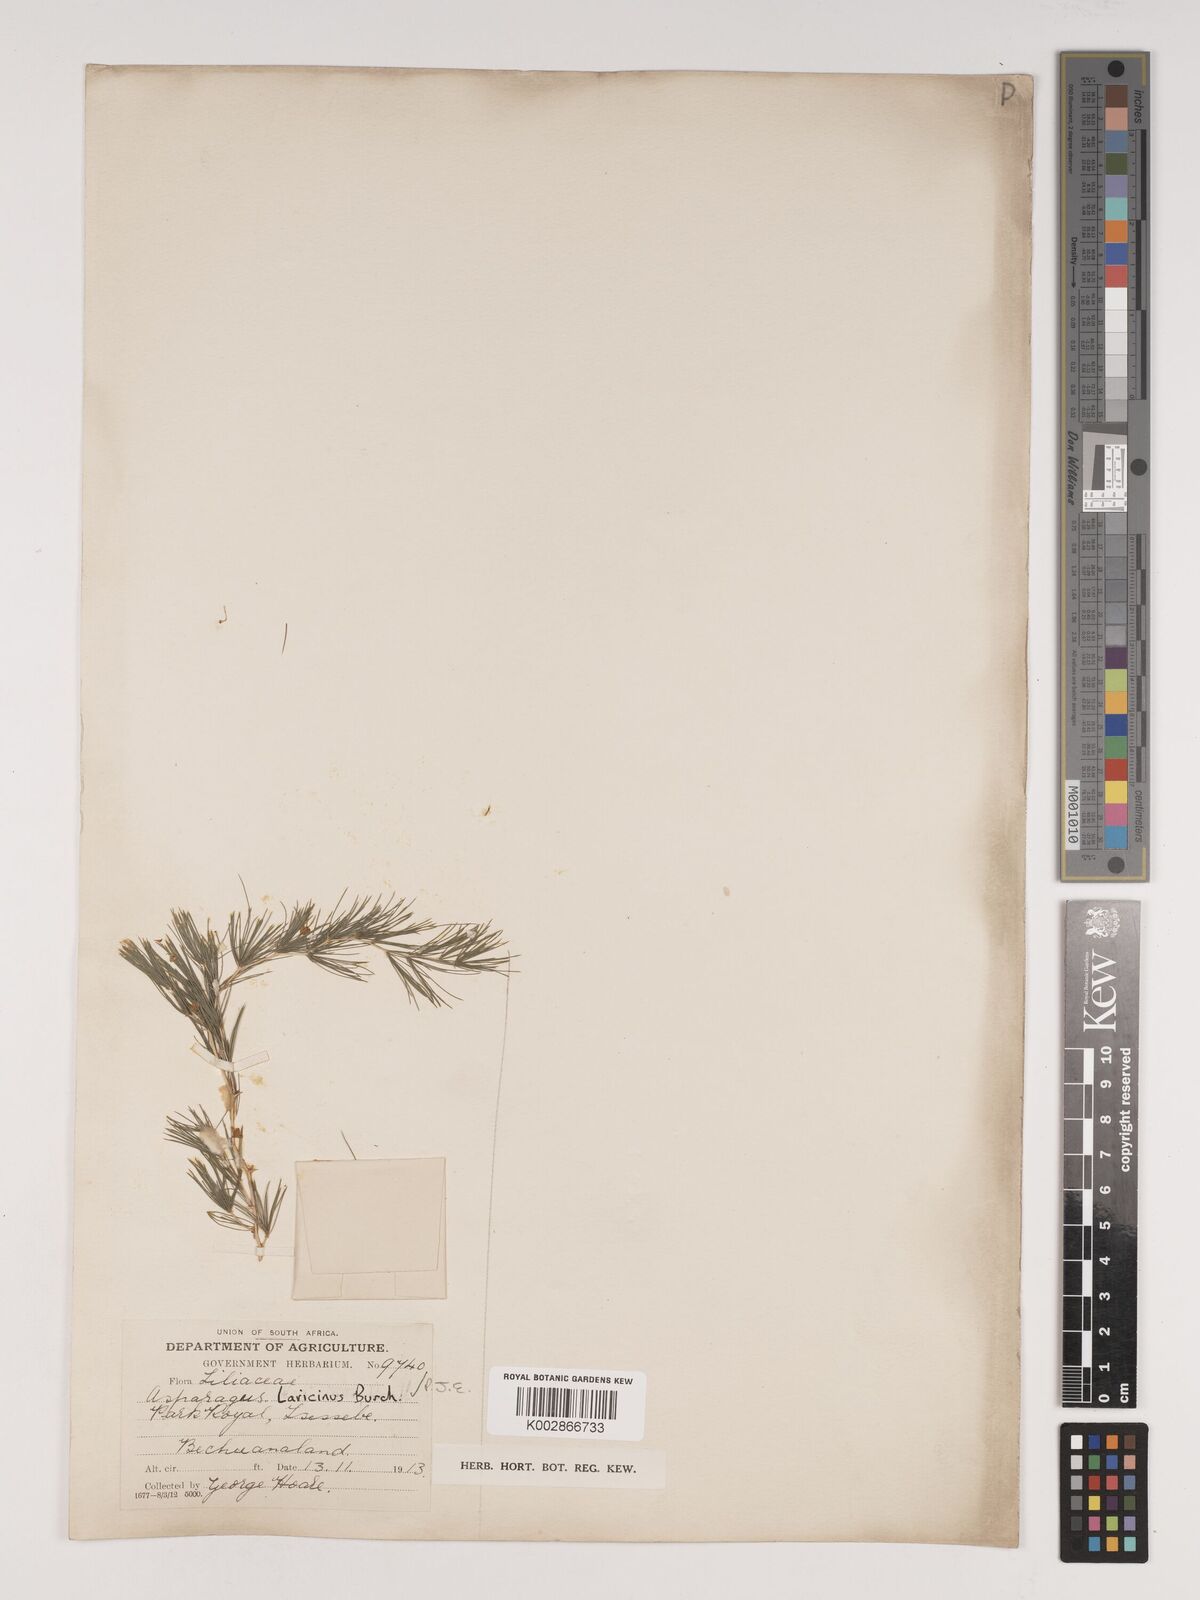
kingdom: Plantae
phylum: Tracheophyta
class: Liliopsida
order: Asparagales
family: Asparagaceae
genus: Asparagus
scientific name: Asparagus laricinus
